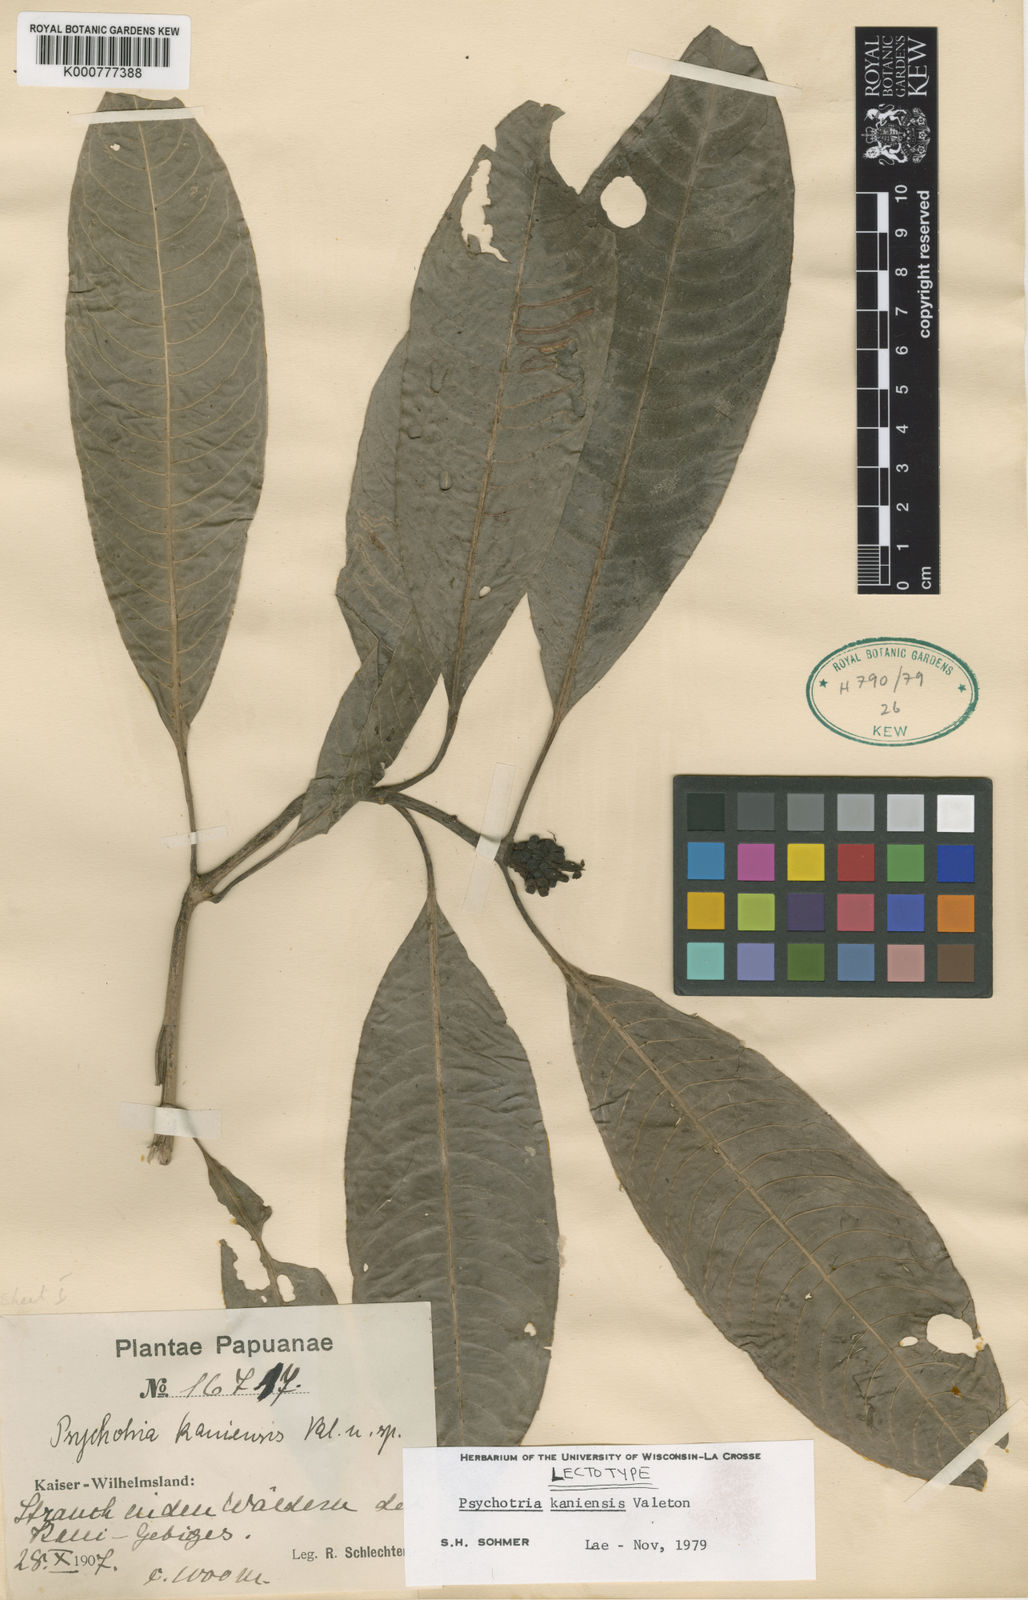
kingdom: Plantae
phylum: Tracheophyta
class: Magnoliopsida
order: Gentianales
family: Rubiaceae
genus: Psychotria
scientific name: Psychotria kaniensis
